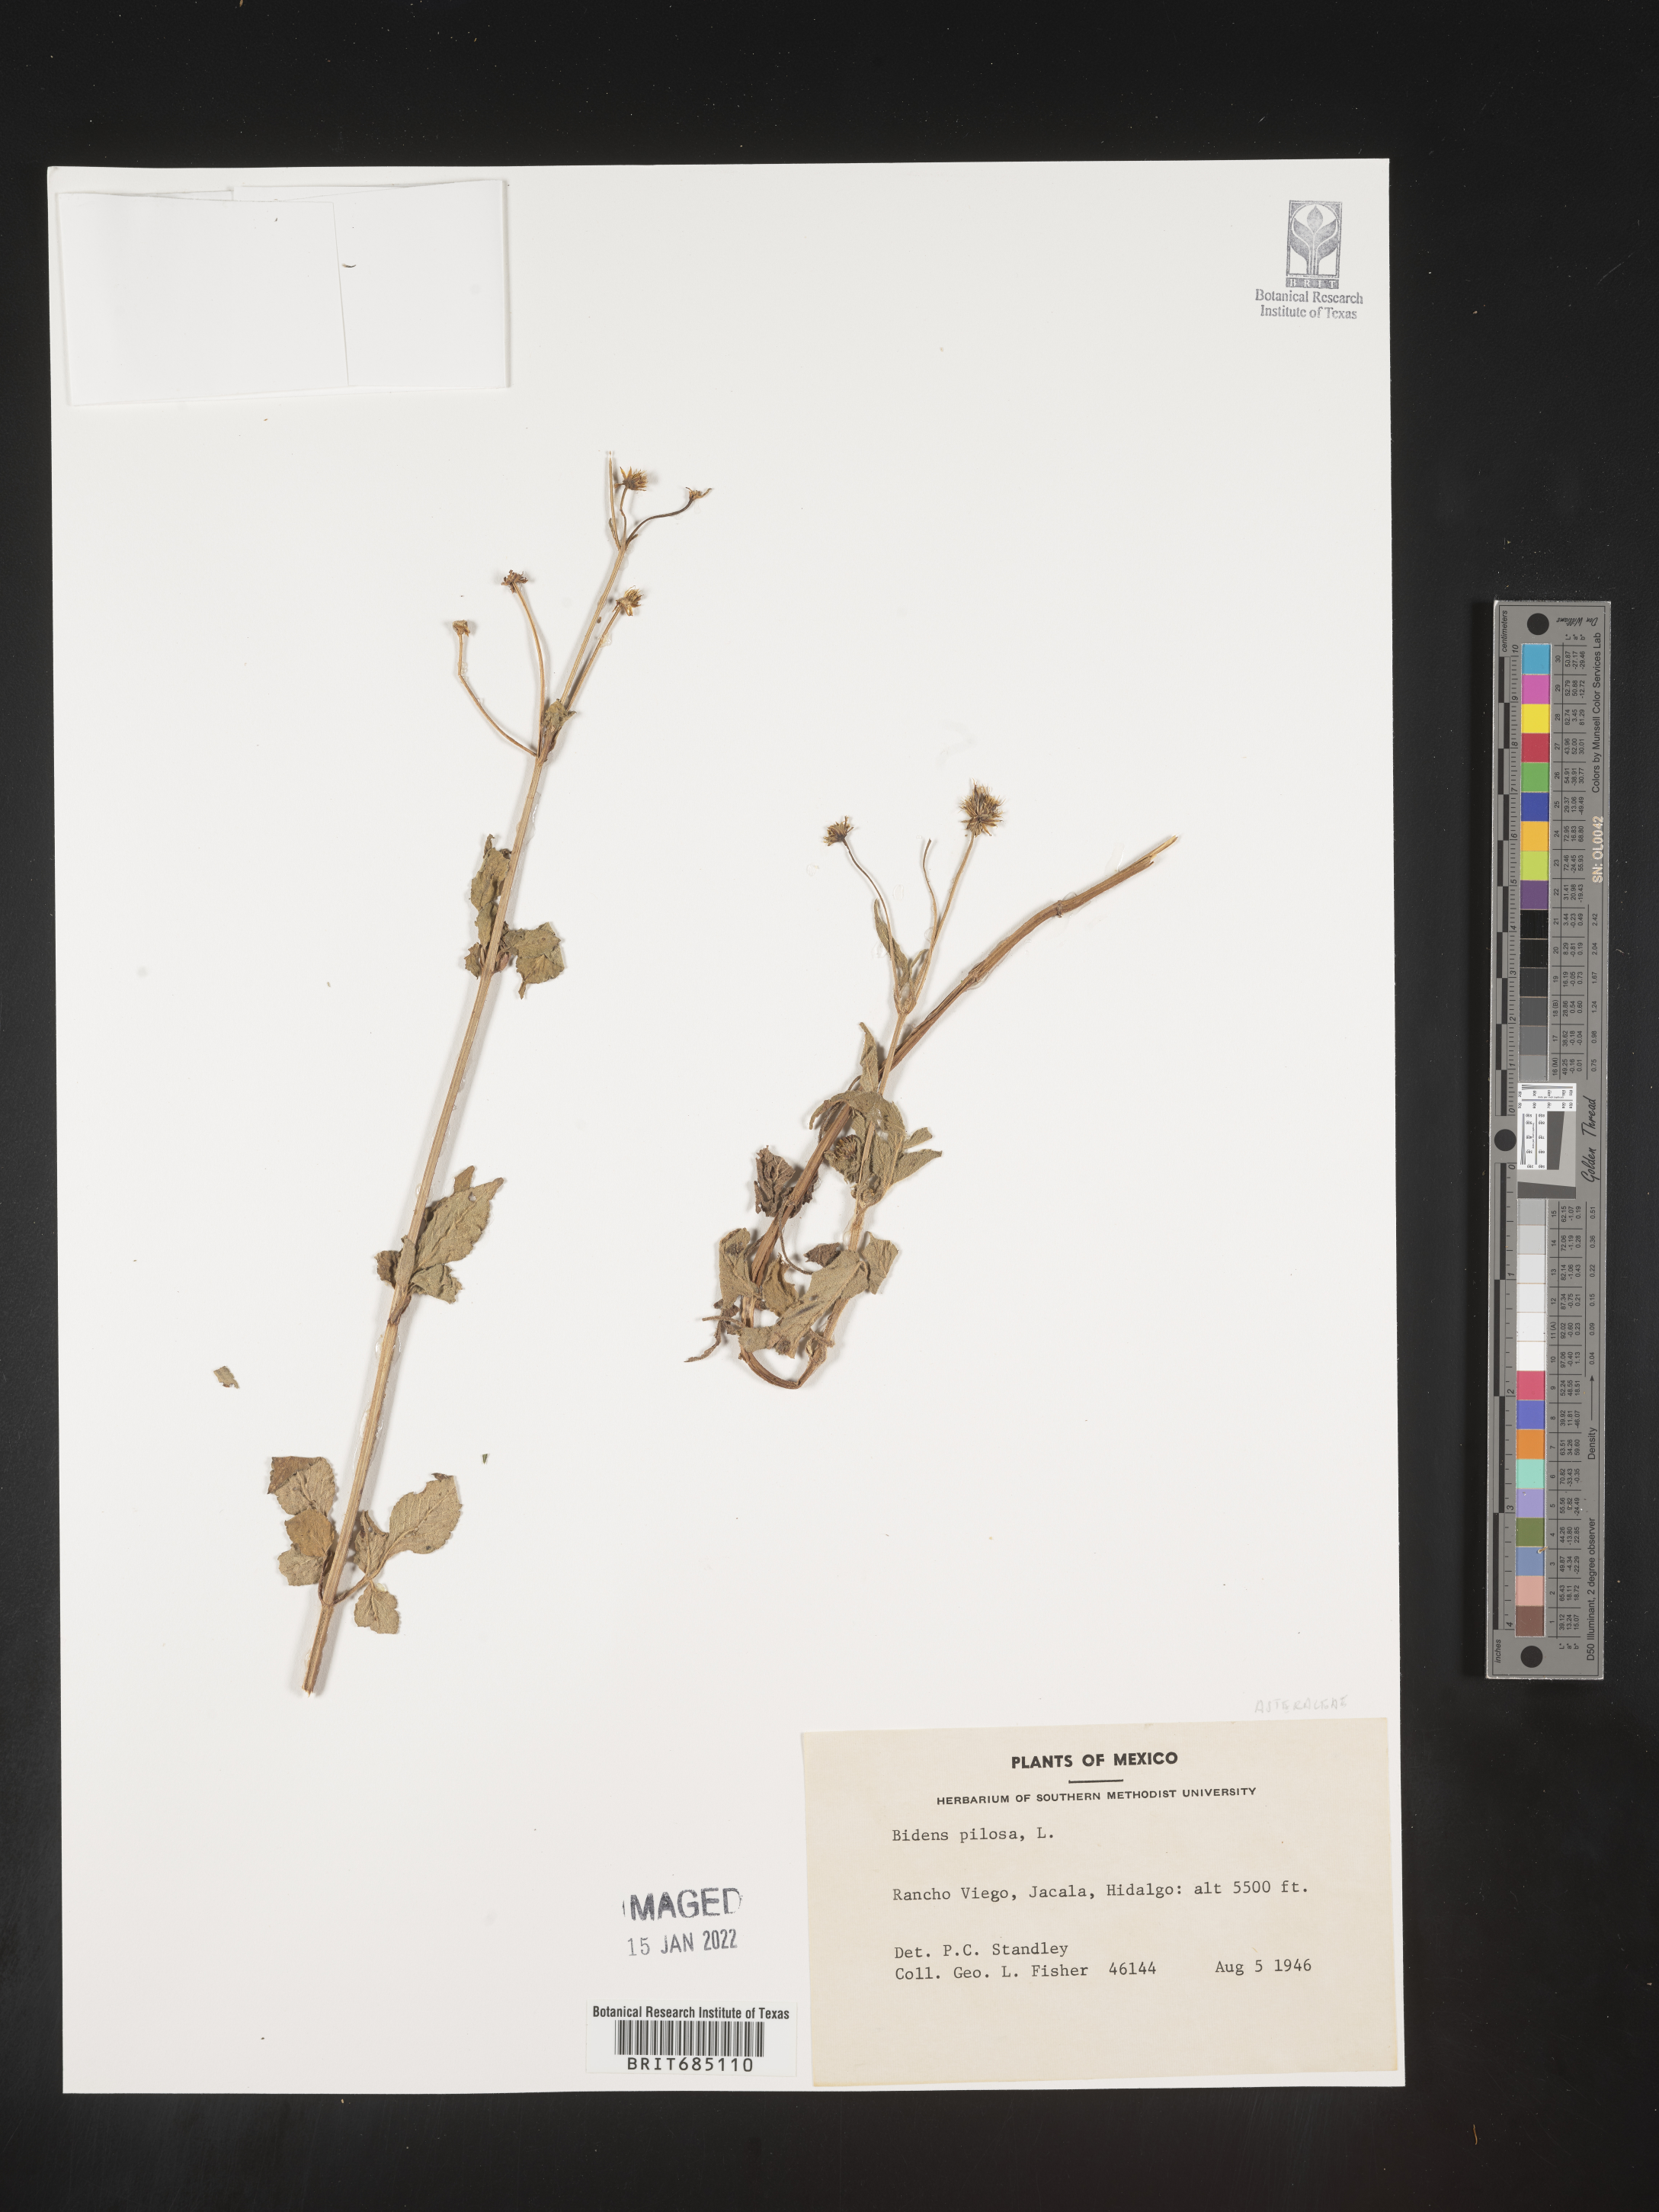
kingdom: Plantae
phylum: Tracheophyta
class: Magnoliopsida
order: Asterales
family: Asteraceae
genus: Bidens
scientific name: Bidens
